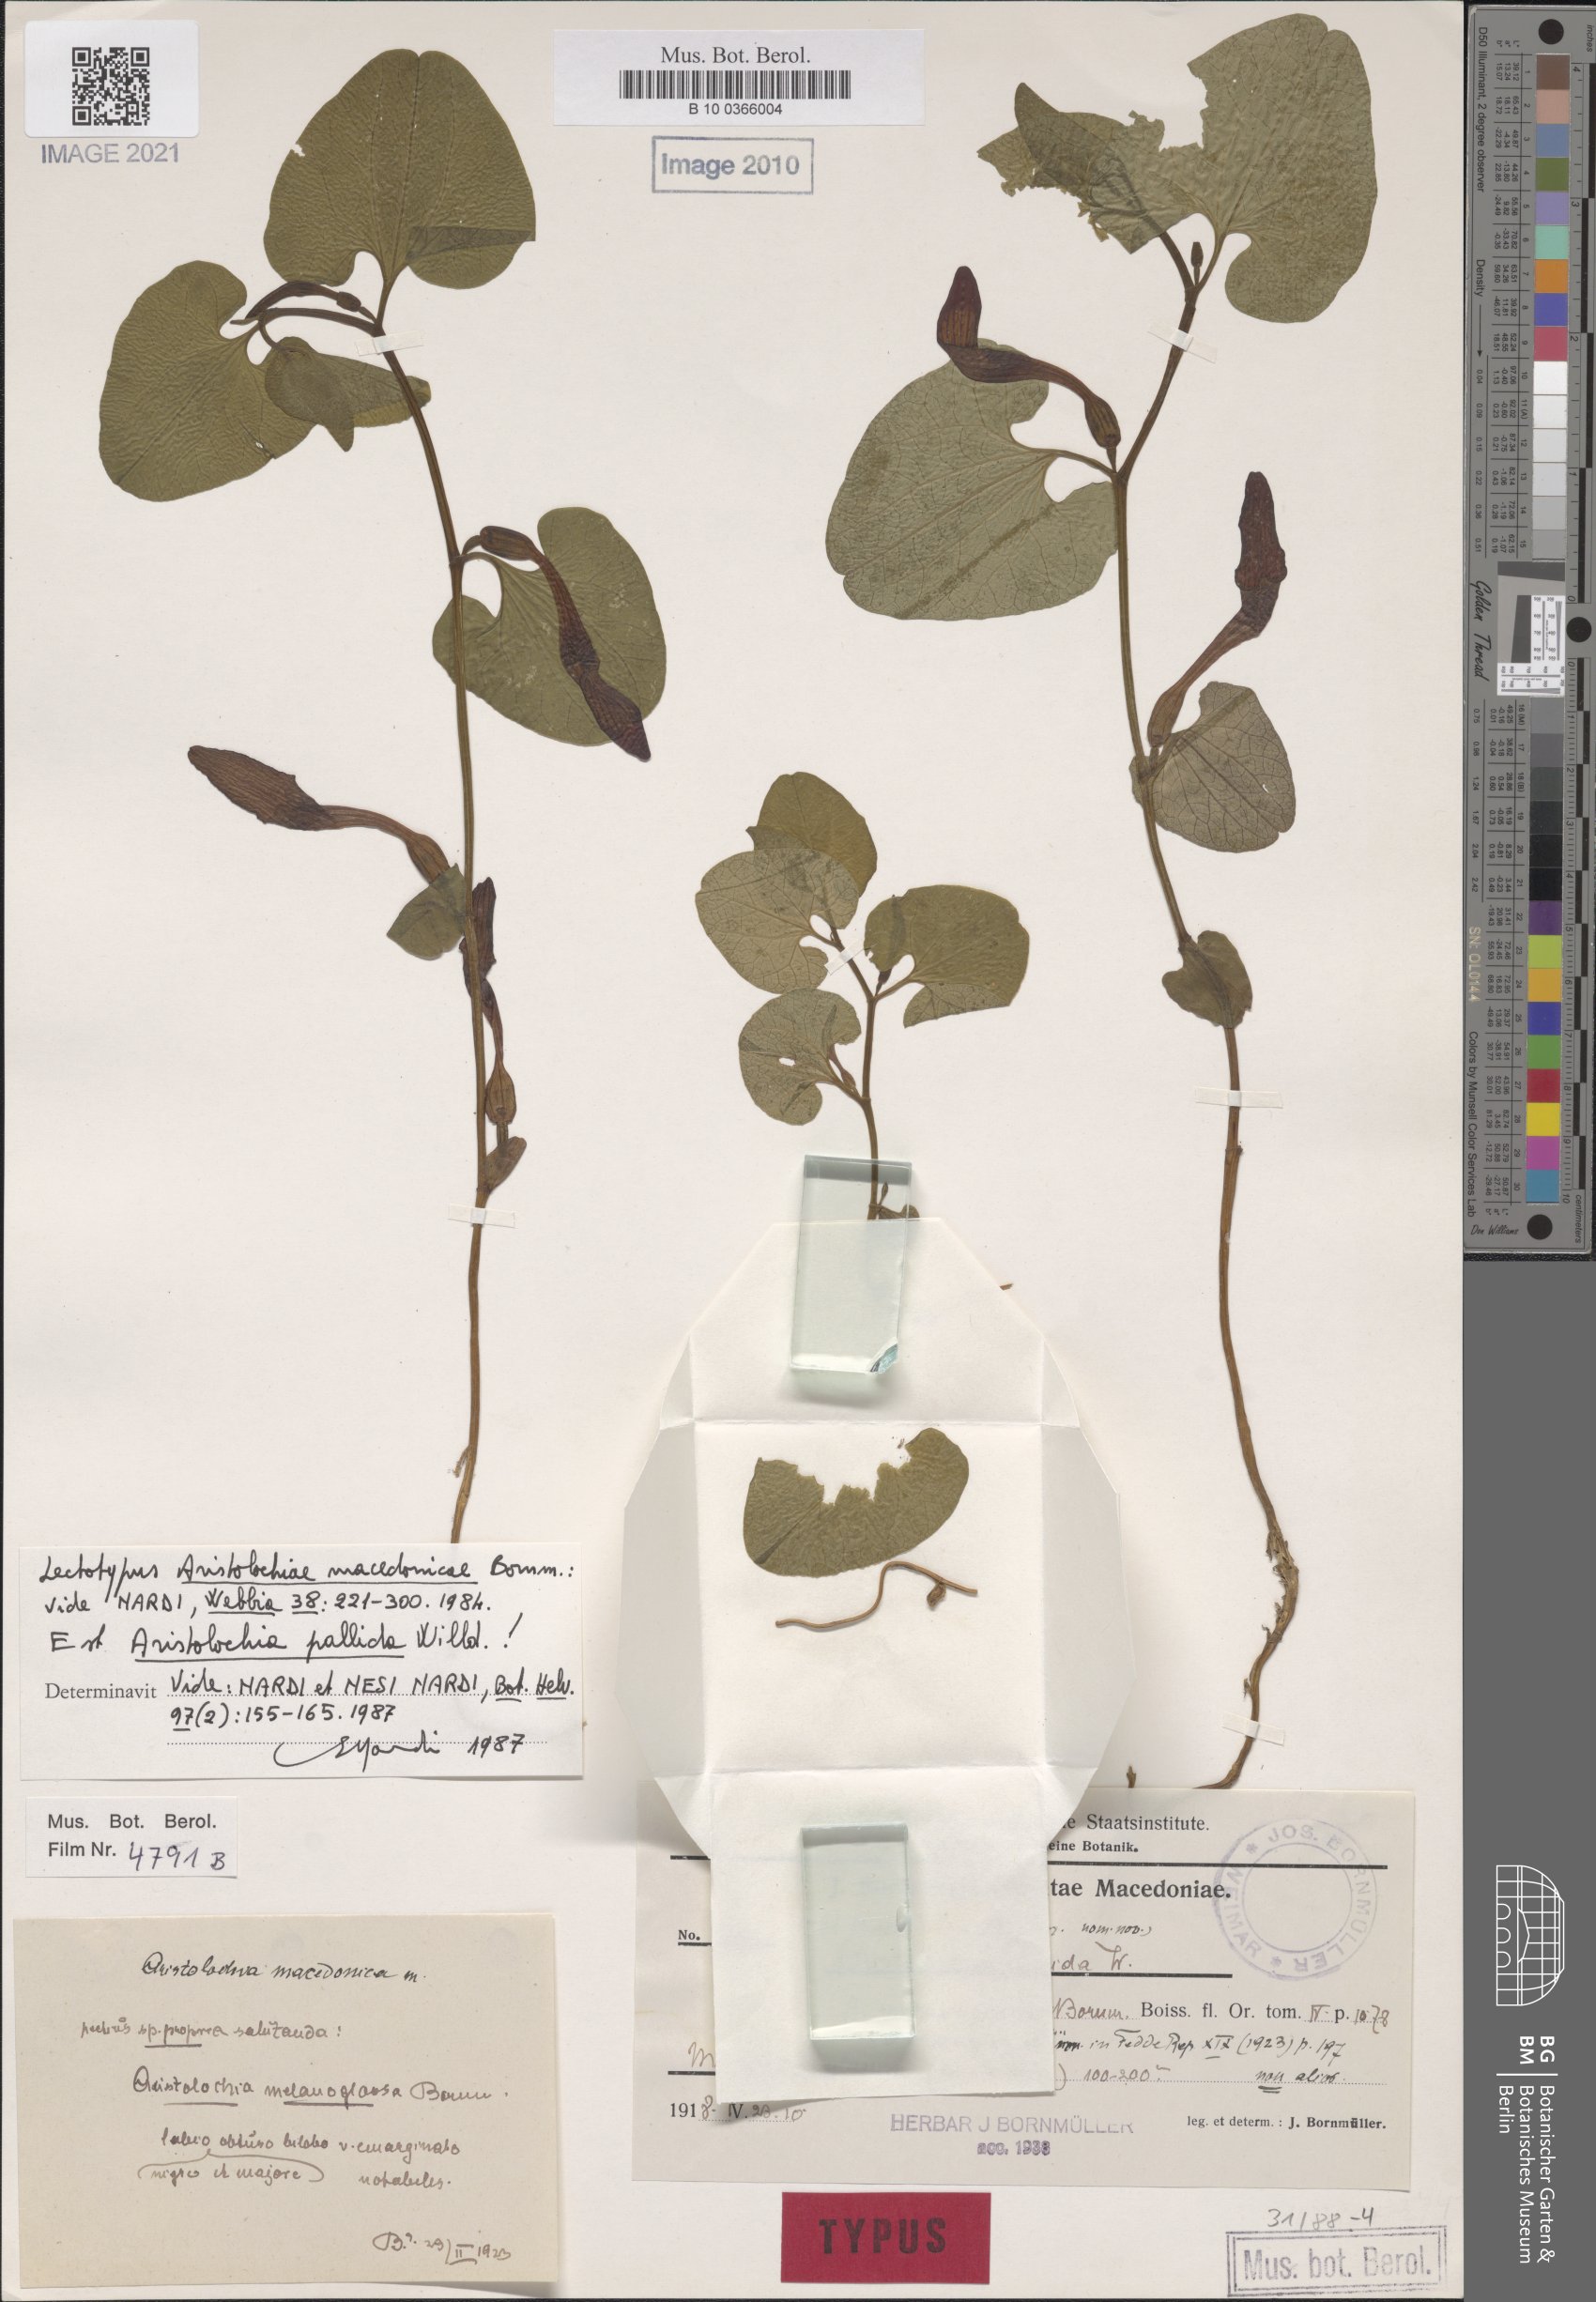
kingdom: Plantae
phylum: Tracheophyta
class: Magnoliopsida
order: Piperales
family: Aristolochiaceae
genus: Aristolochia
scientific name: Aristolochia pallida
